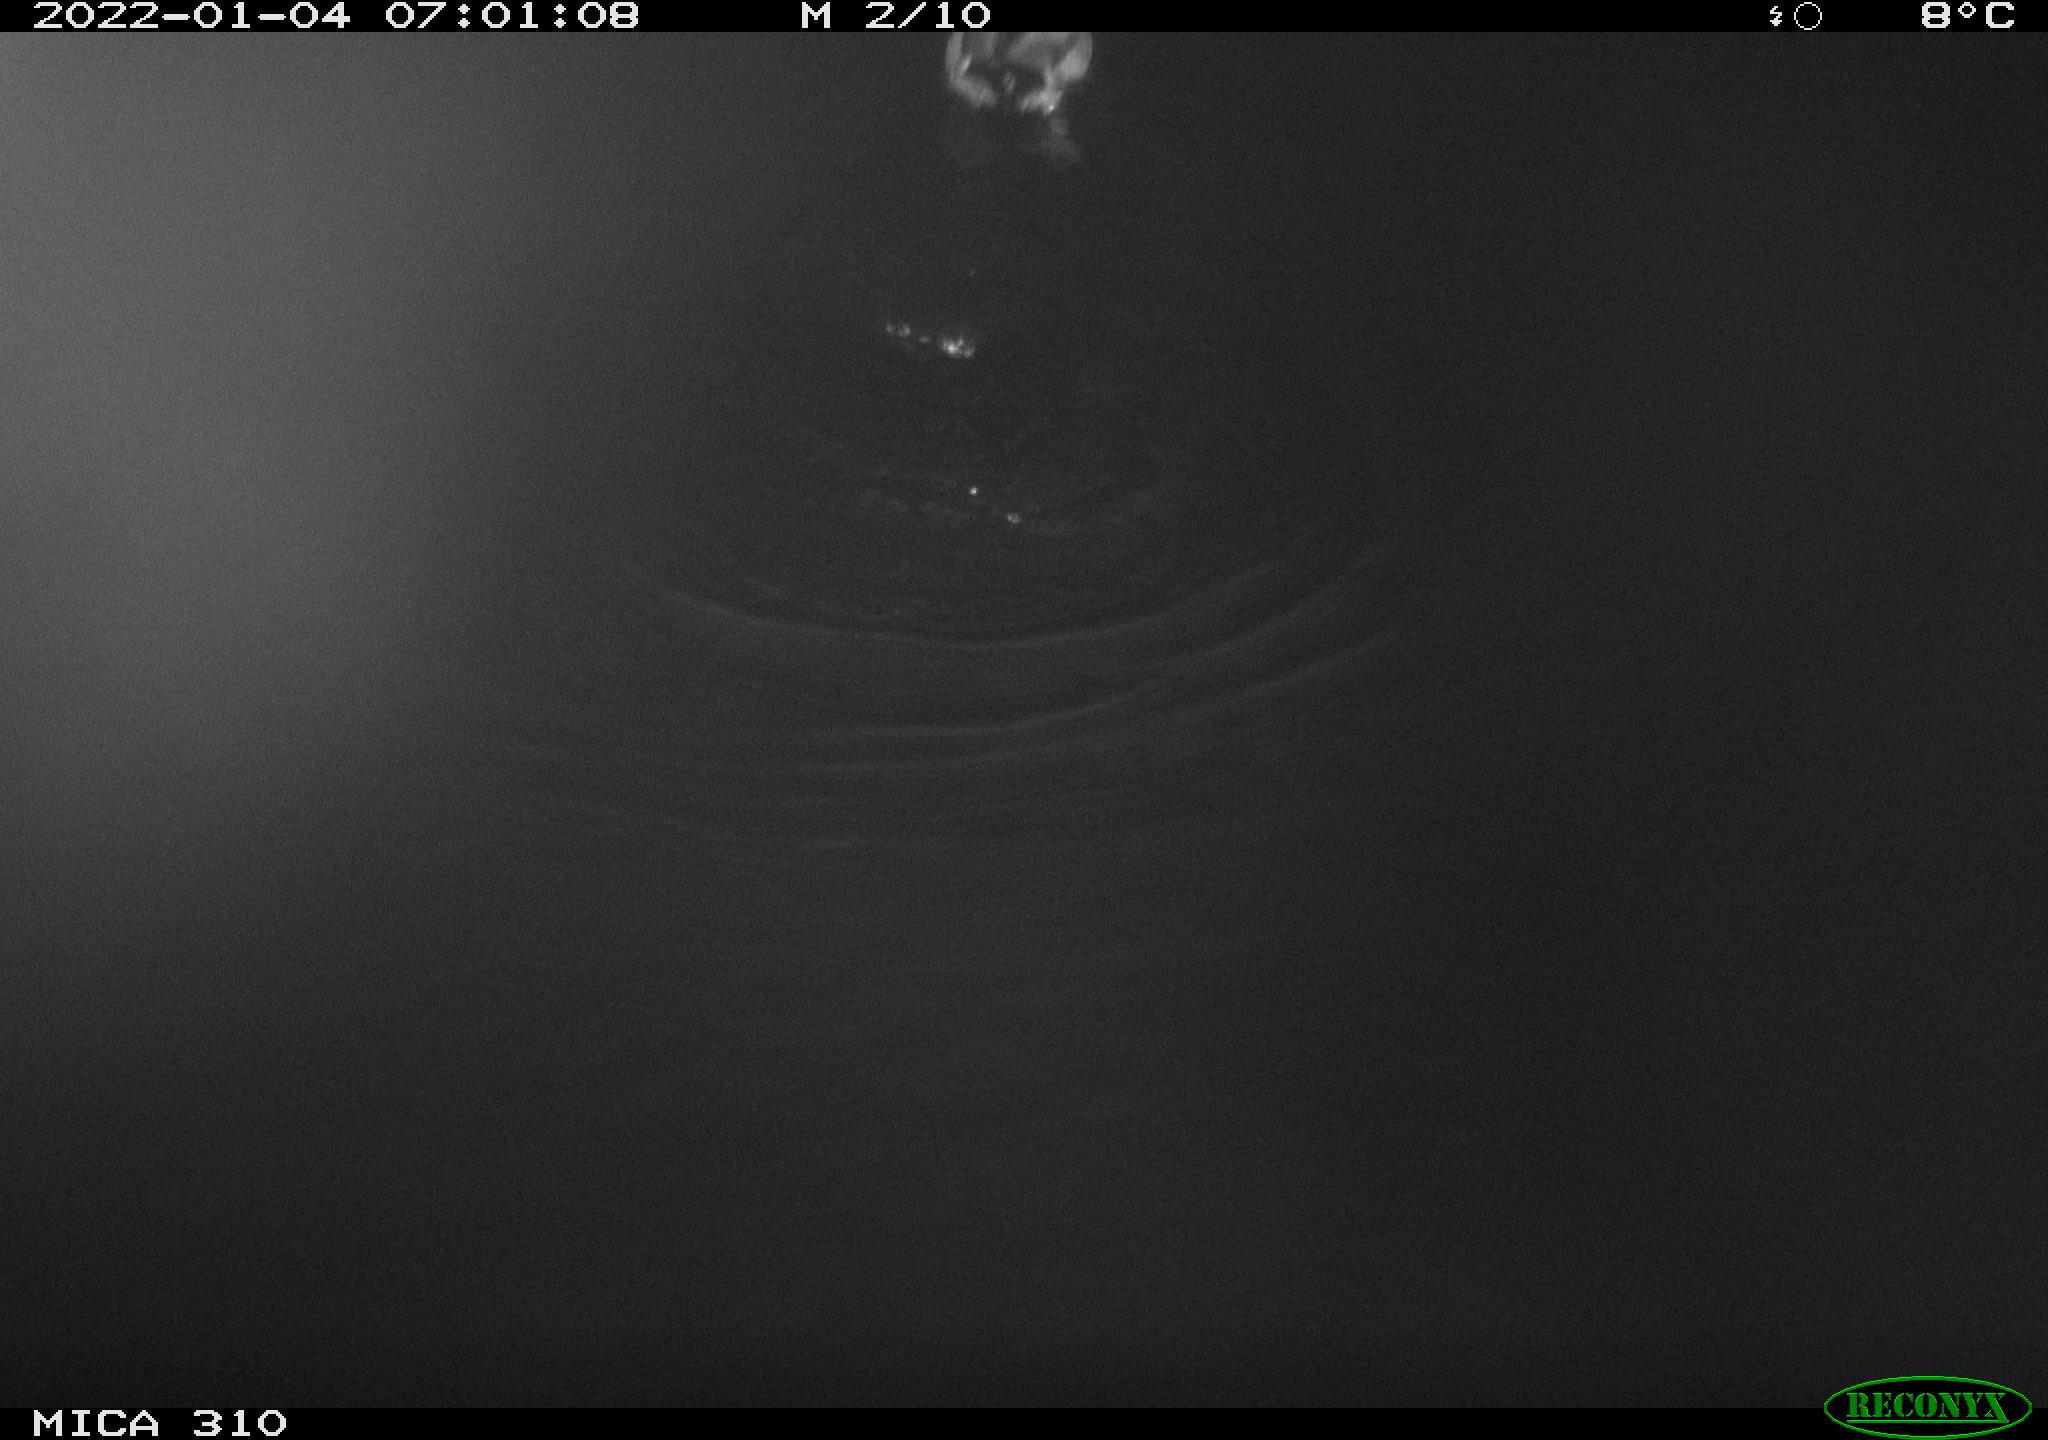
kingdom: Animalia
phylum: Chordata
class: Aves
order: Anseriformes
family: Anatidae
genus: Anas
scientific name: Anas platyrhynchos
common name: Mallard
